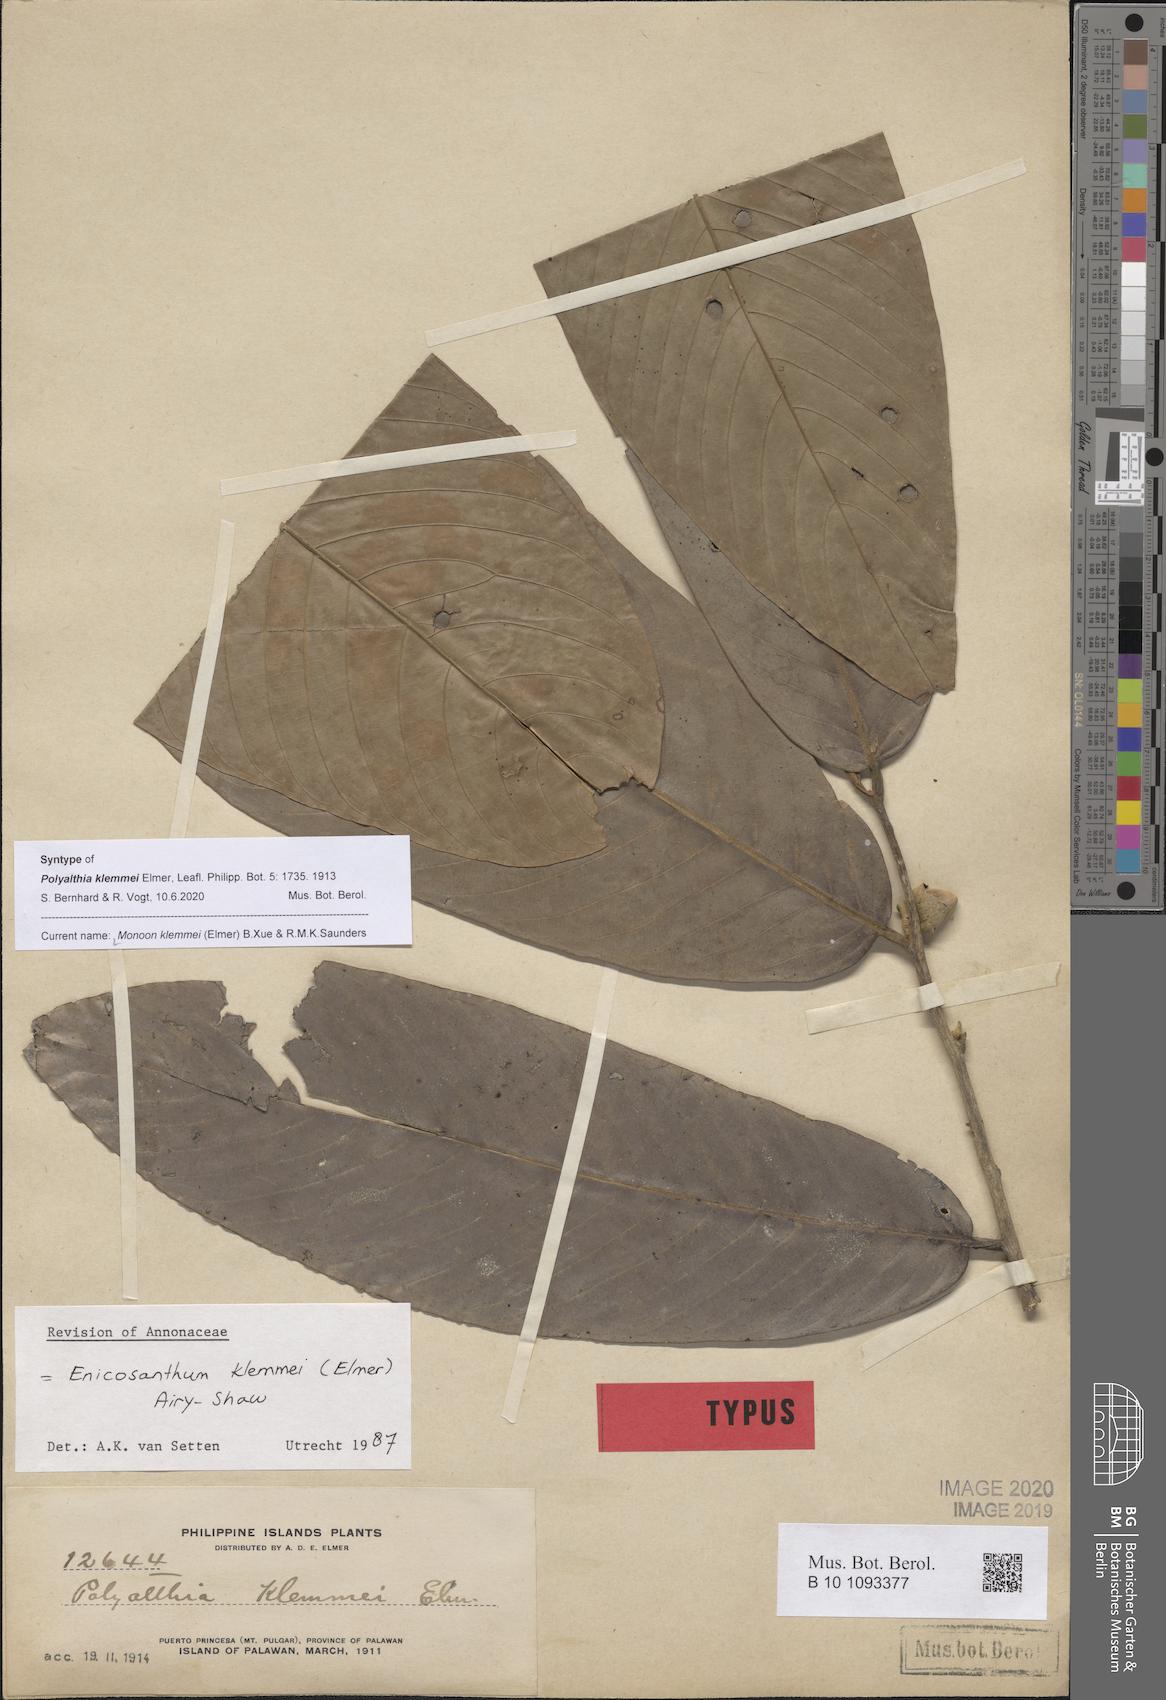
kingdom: Plantae
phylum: Tracheophyta
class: Magnoliopsida
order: Magnoliales
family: Annonaceae
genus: Enicosanthum
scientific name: Enicosanthum klemmei
